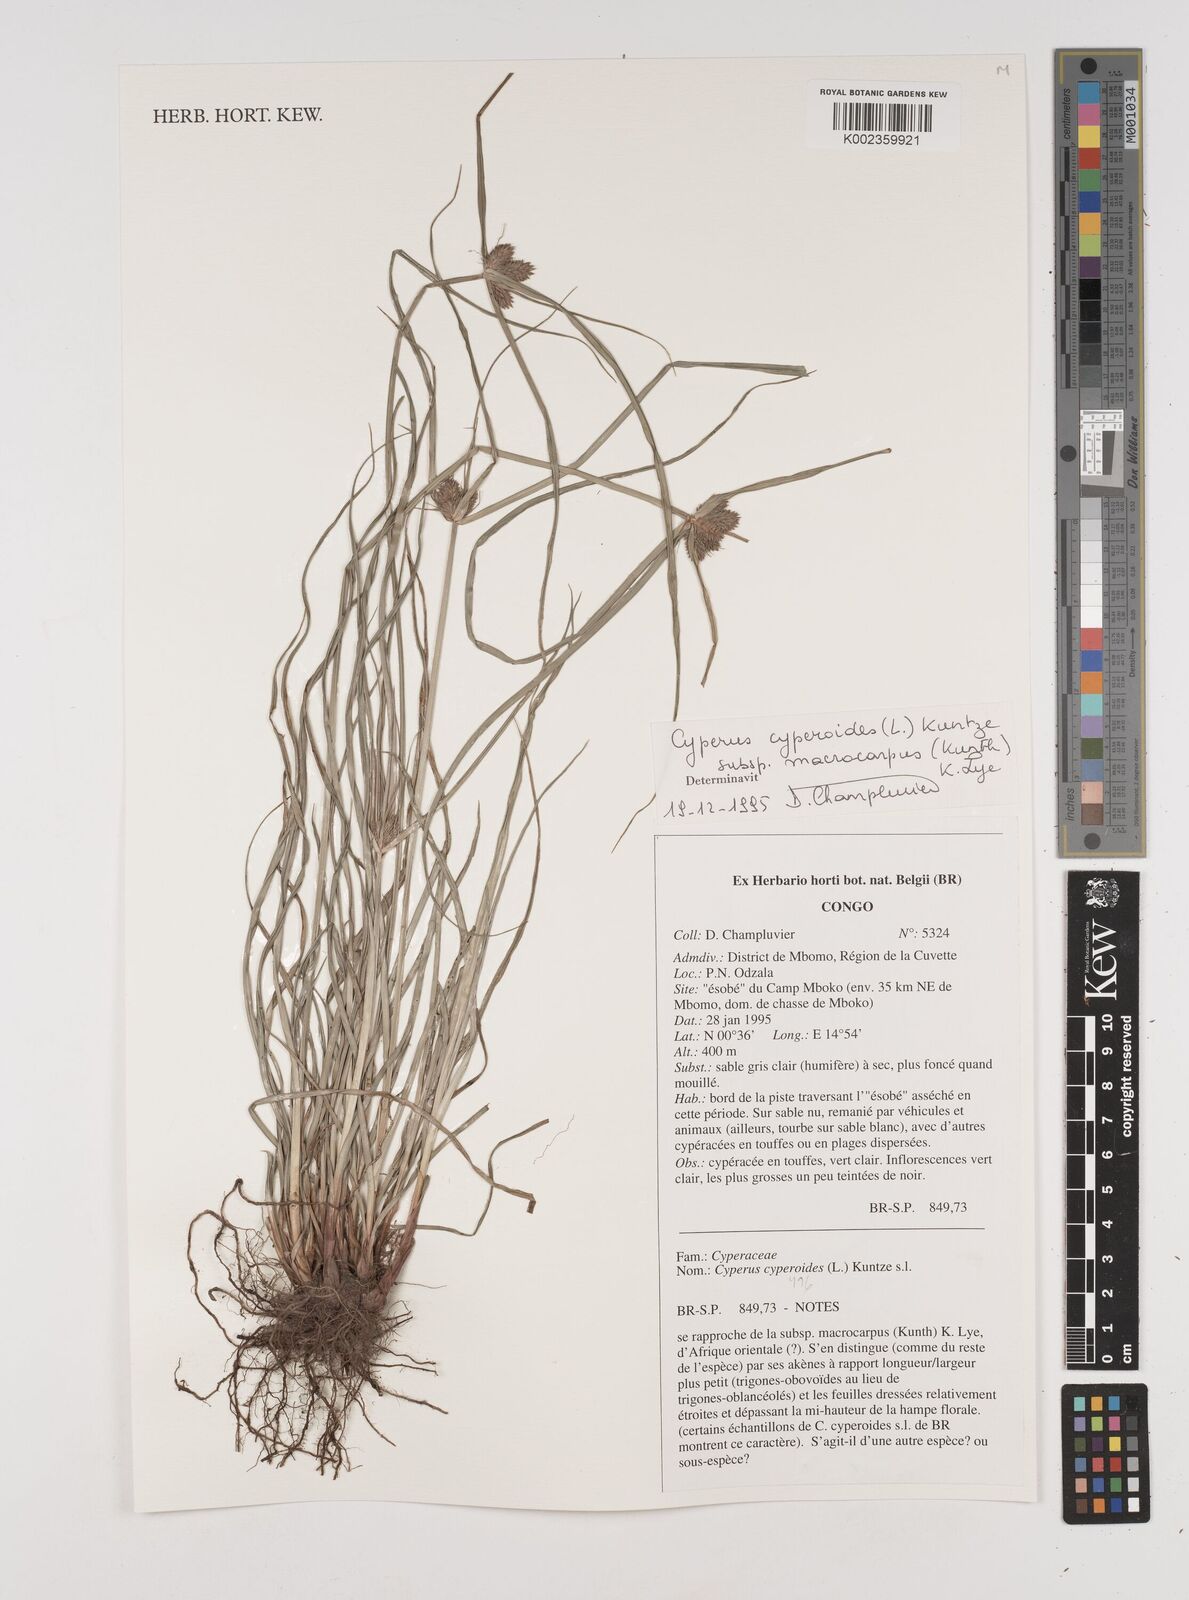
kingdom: Plantae
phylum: Tracheophyta
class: Liliopsida
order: Poales
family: Cyperaceae
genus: Cyperus
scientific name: Cyperus cyperoides
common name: Pacific island flat sedge
